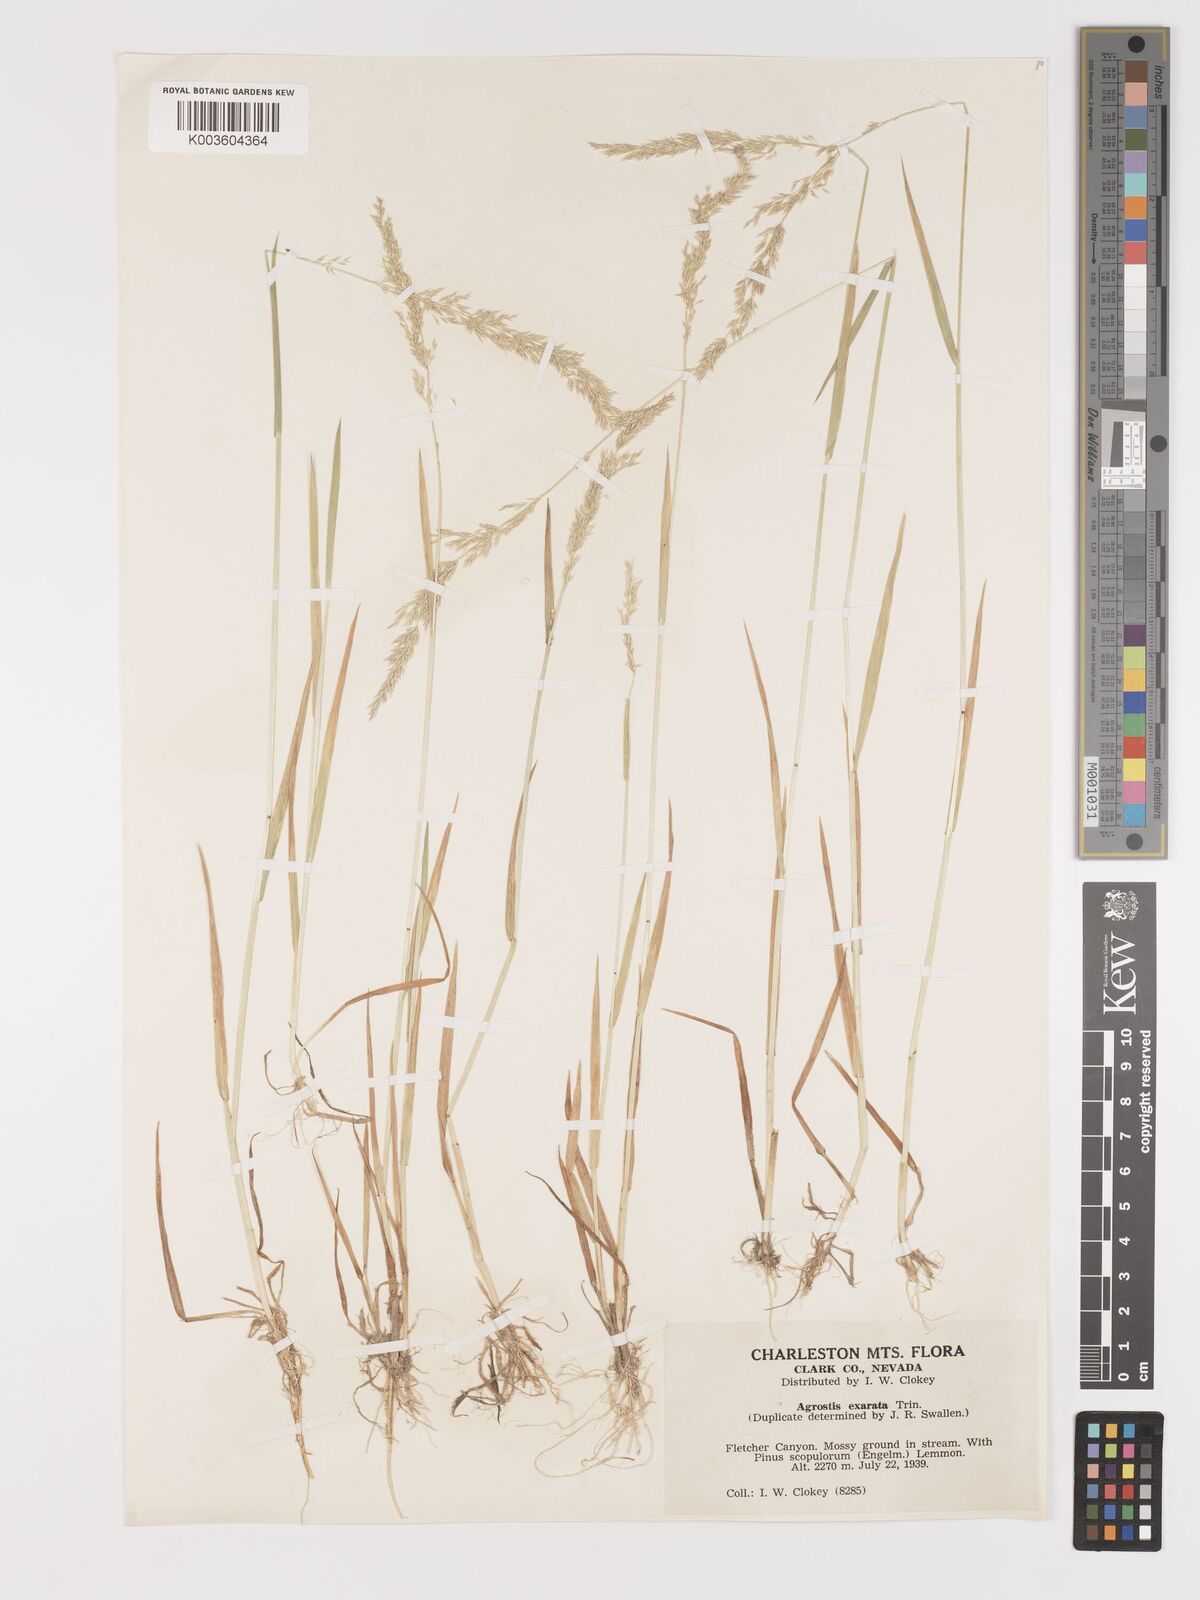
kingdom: Plantae
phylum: Tracheophyta
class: Liliopsida
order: Poales
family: Poaceae
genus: Agrostis
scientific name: Agrostis exarata
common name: Spike bent
